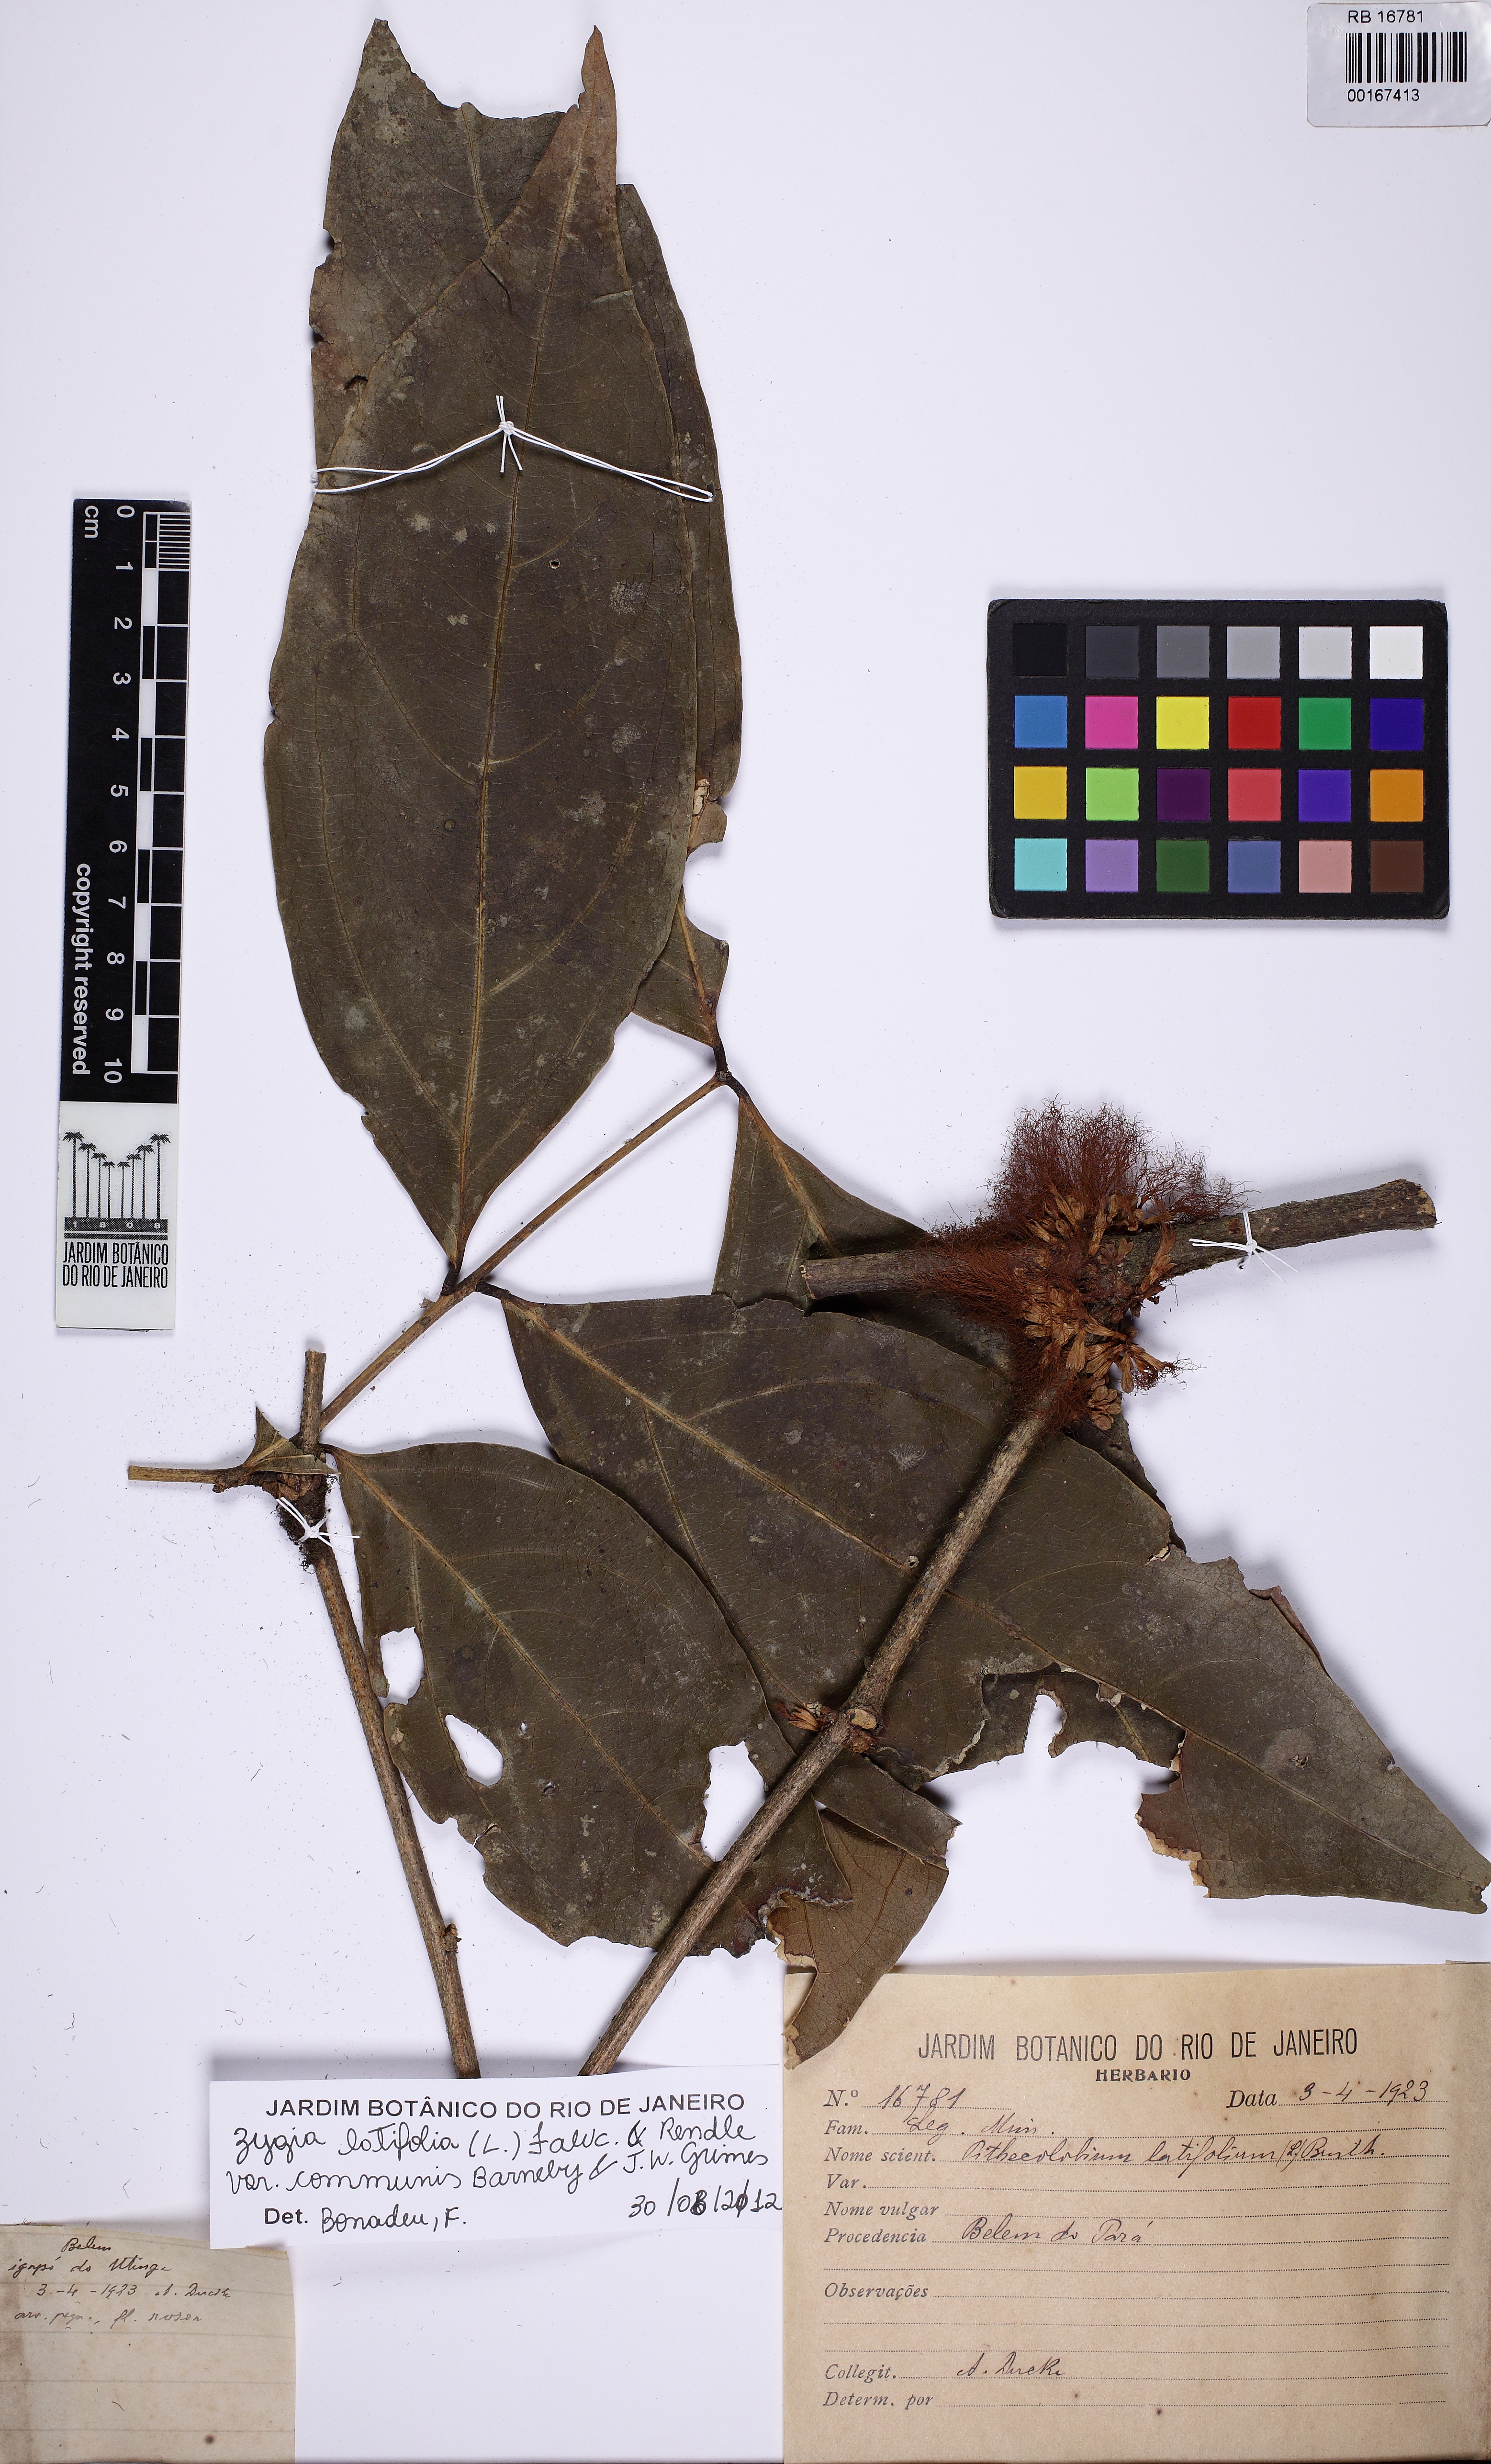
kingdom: Plantae
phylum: Tracheophyta
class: Magnoliopsida
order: Fabales
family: Fabaceae
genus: Zygia
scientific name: Zygia cauliflora
